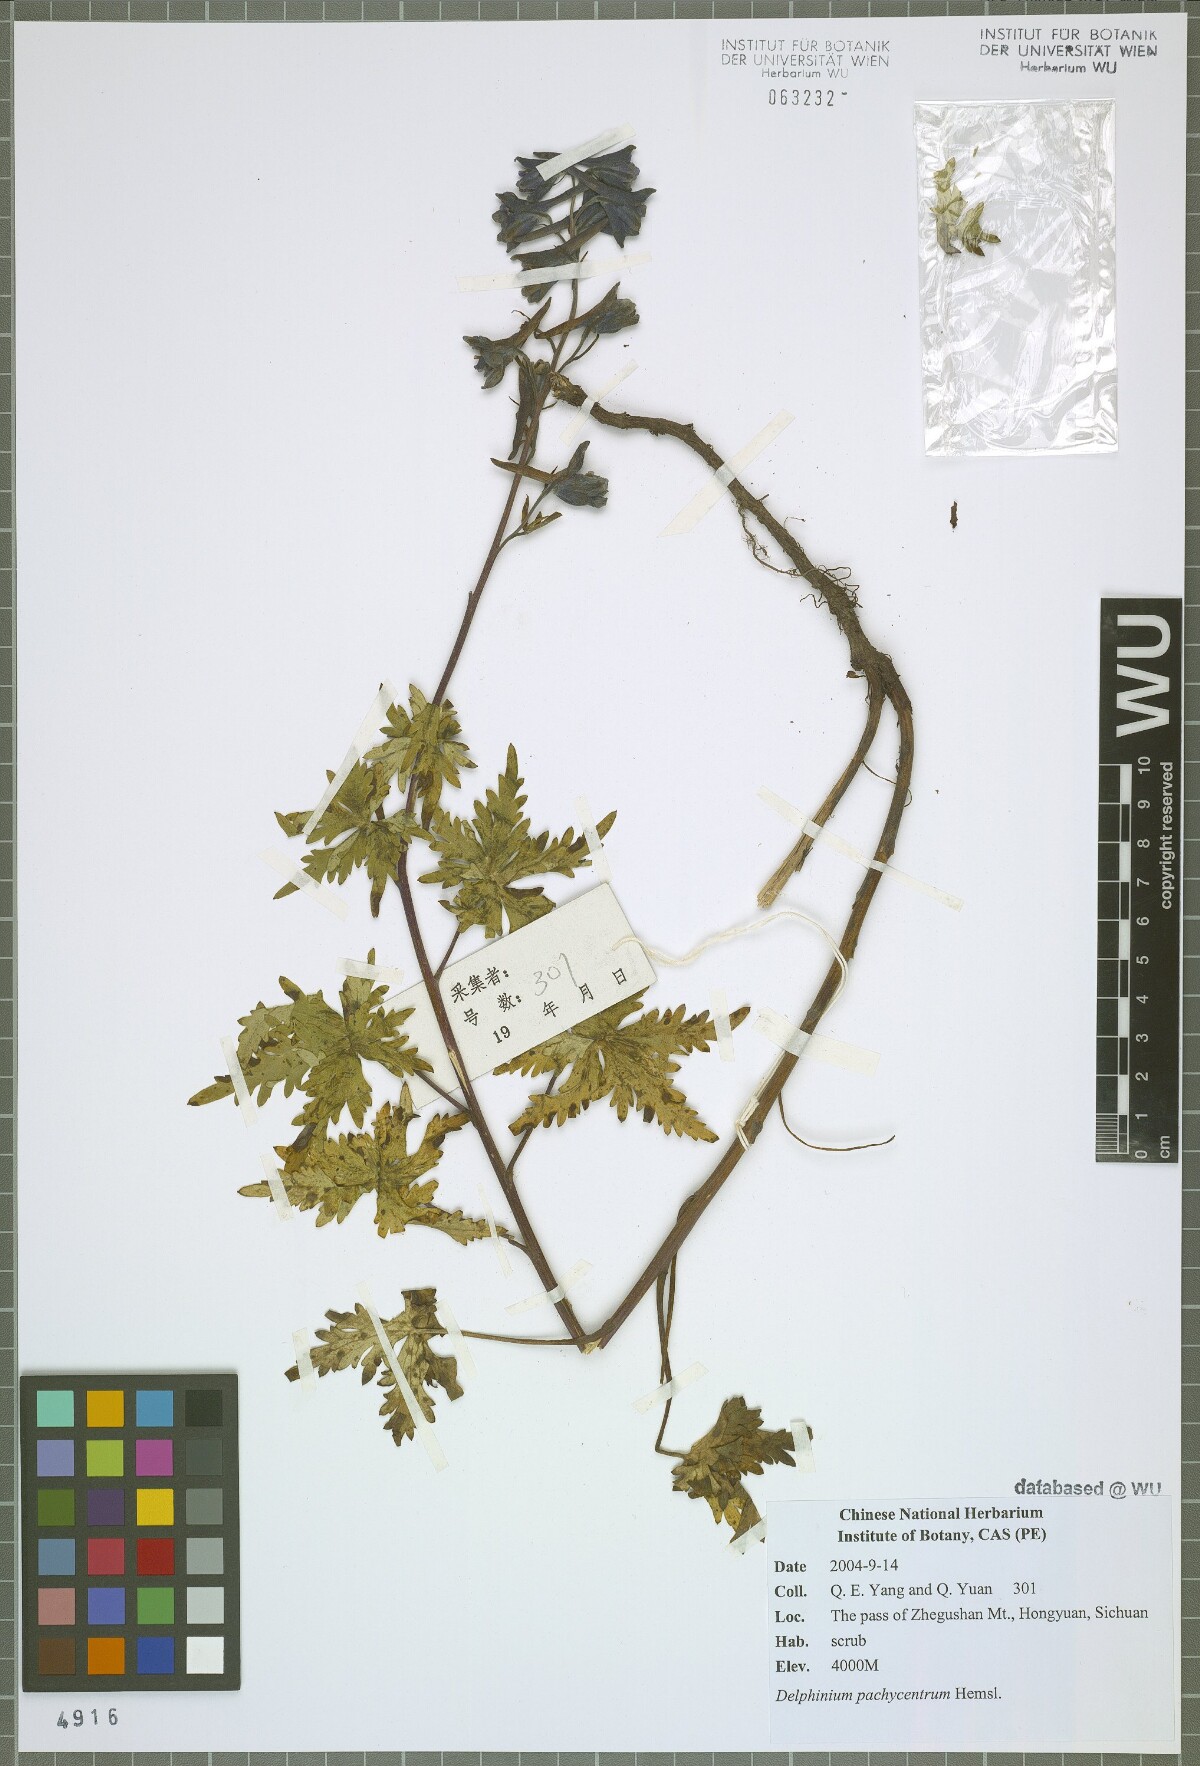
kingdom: Plantae
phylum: Tracheophyta
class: Magnoliopsida
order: Ranunculales
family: Ranunculaceae
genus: Delphinium
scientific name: Delphinium pachycentrum
